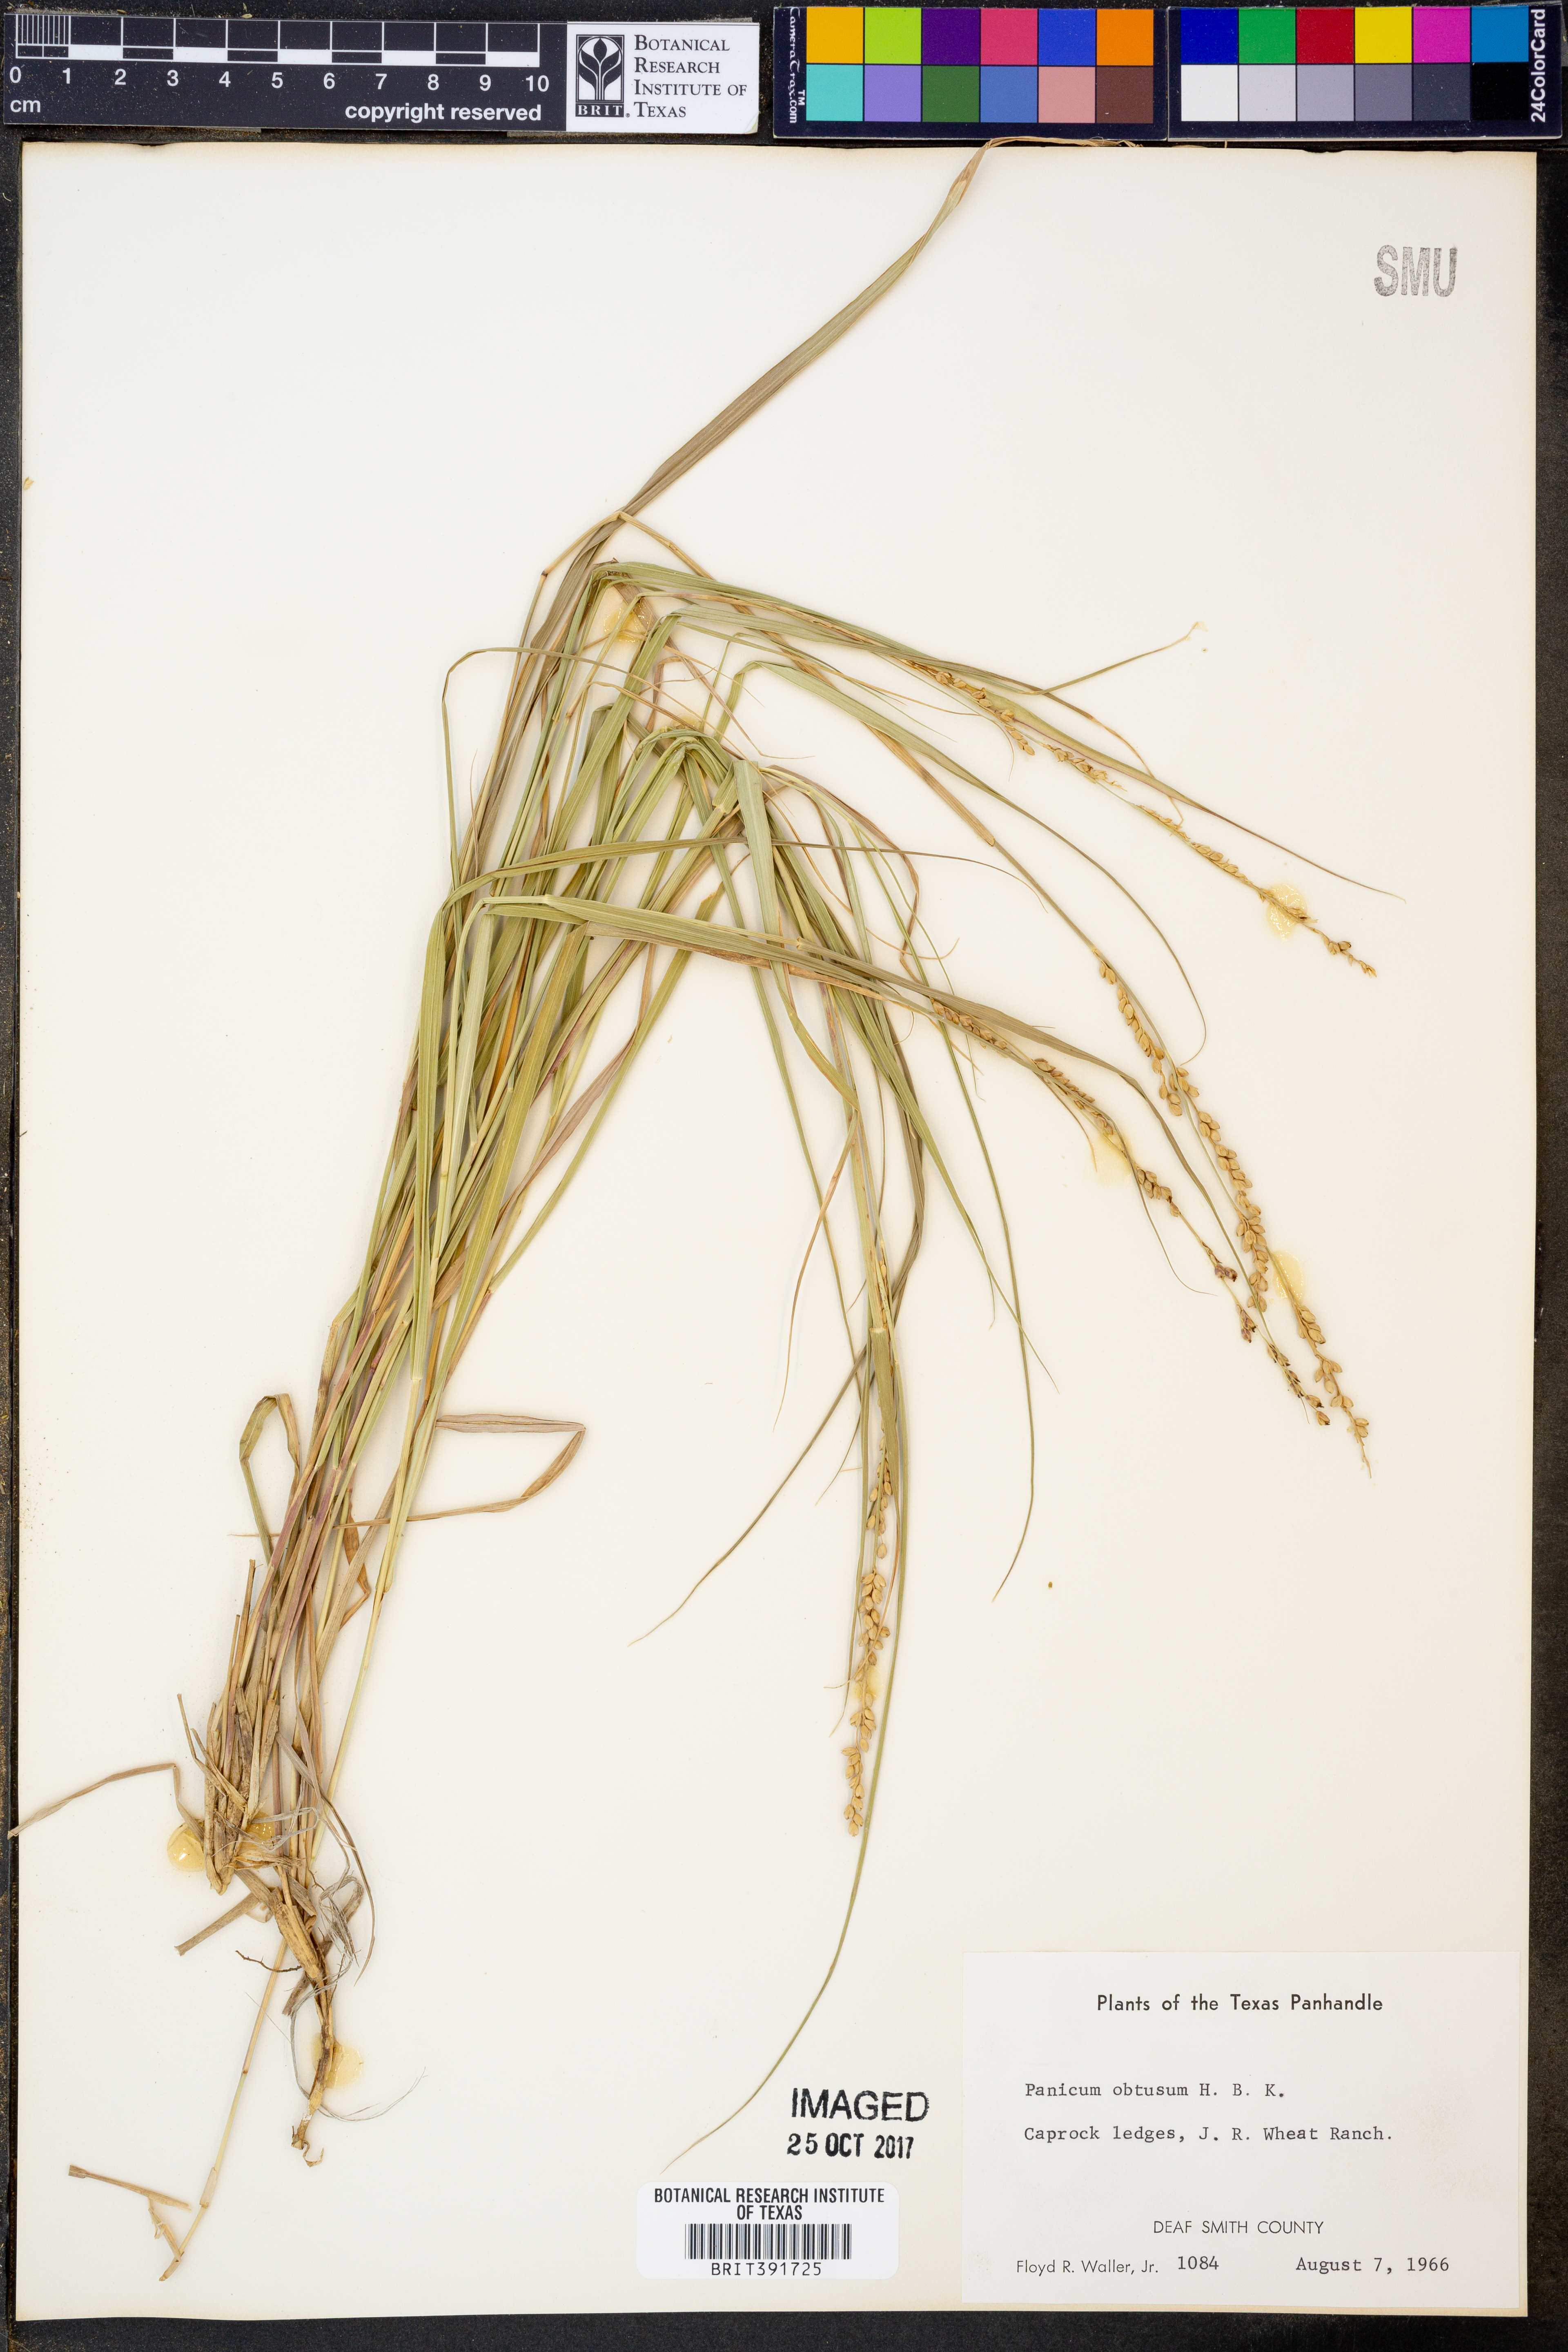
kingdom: Plantae
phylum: Tracheophyta
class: Liliopsida
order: Poales
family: Poaceae
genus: Hopia
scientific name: Hopia obtusa
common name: Vine-mesquite
